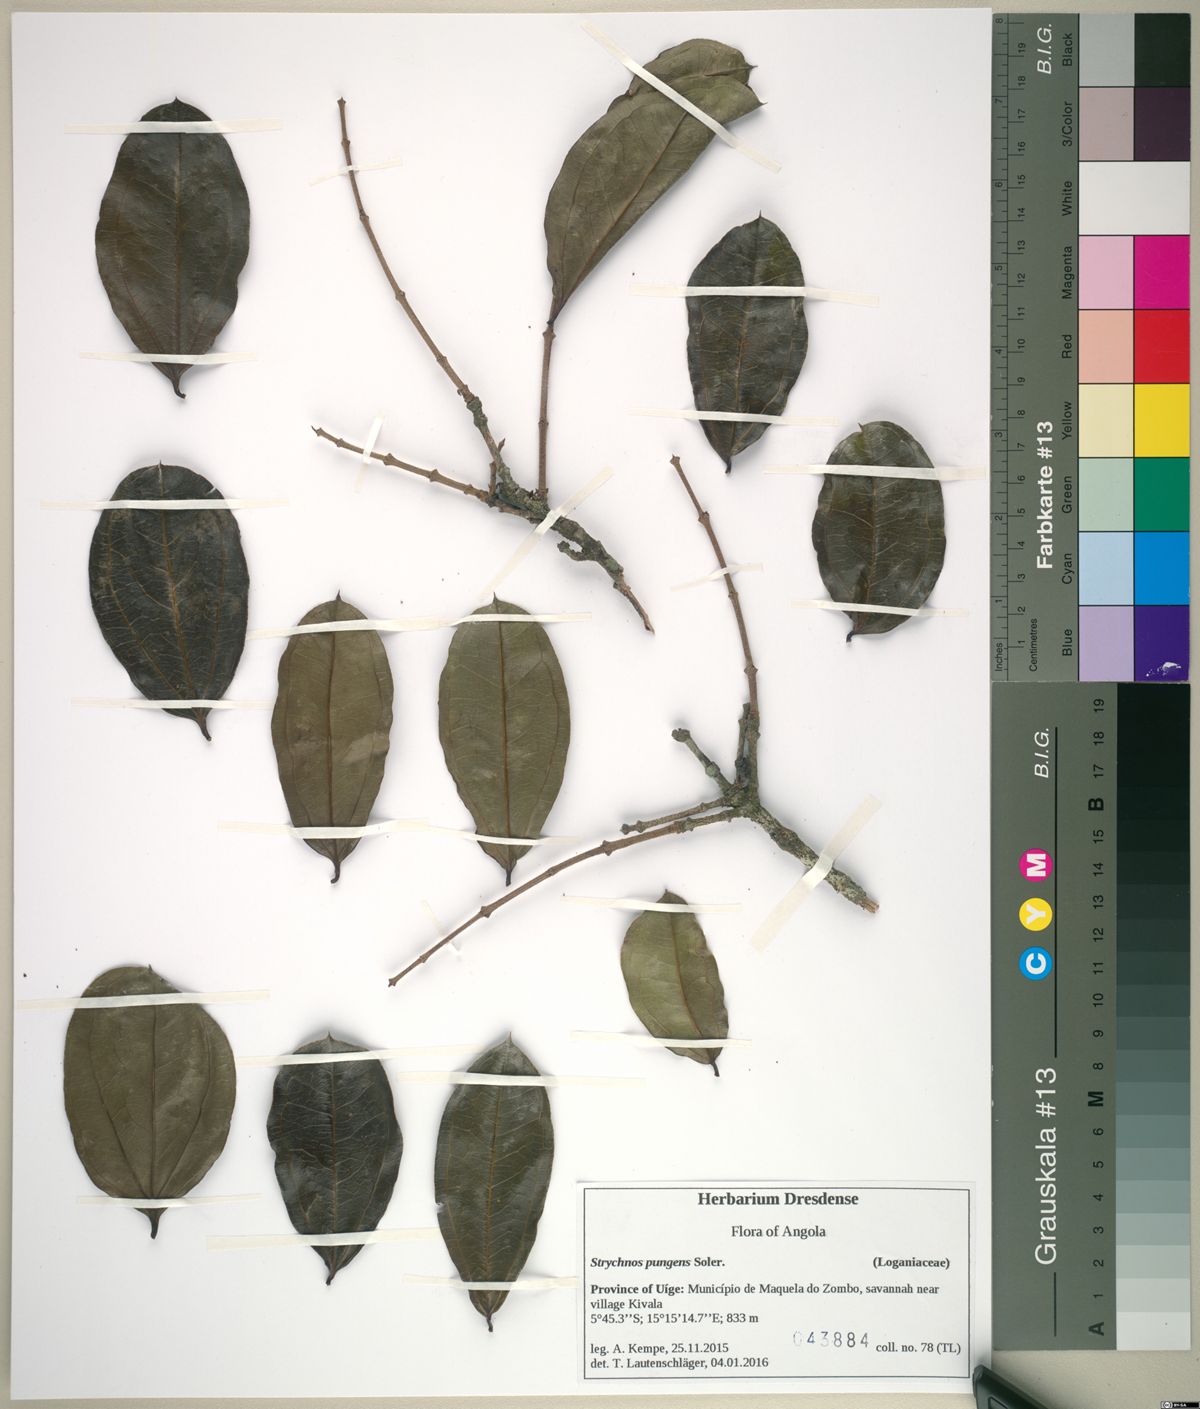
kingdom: Plantae
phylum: Tracheophyta
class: Magnoliopsida
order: Gentianales
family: Loganiaceae
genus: Strychnos
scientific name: Strychnos pungens
